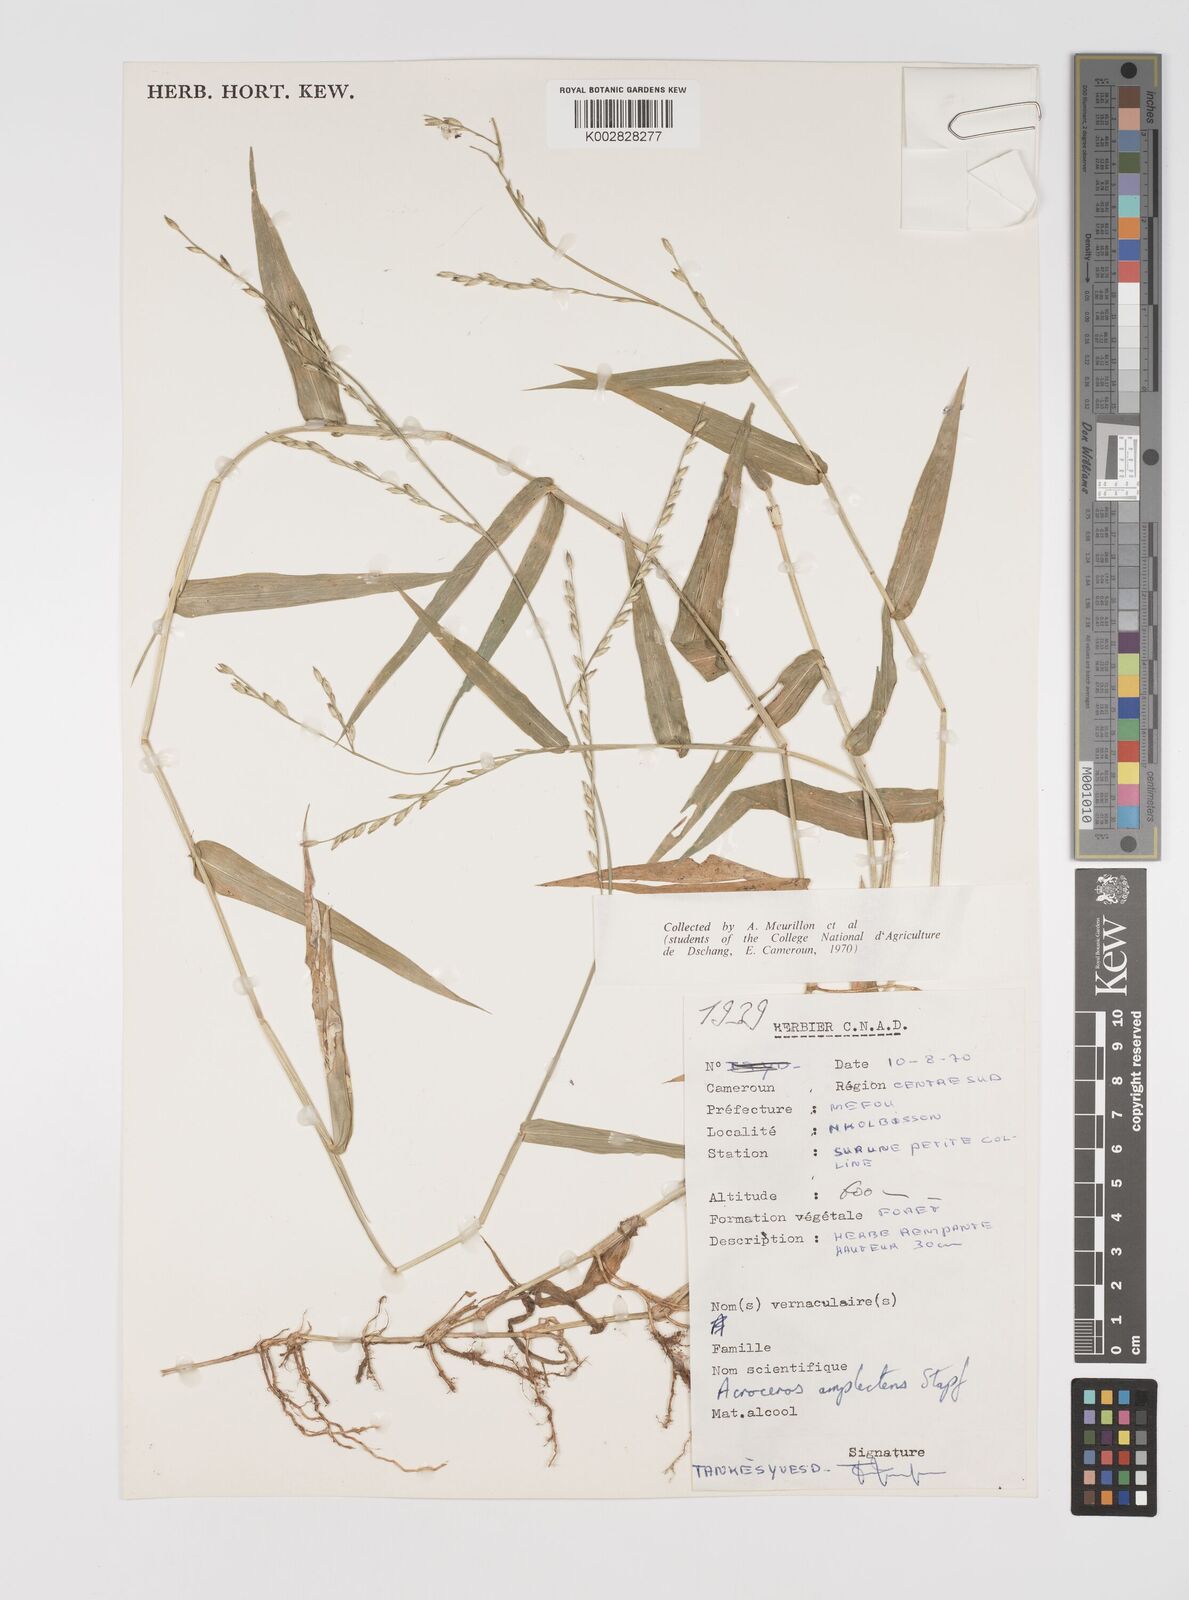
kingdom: Plantae
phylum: Tracheophyta
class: Liliopsida
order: Poales
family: Poaceae
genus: Acroceras
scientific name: Acroceras zizanioides
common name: Oat grass
